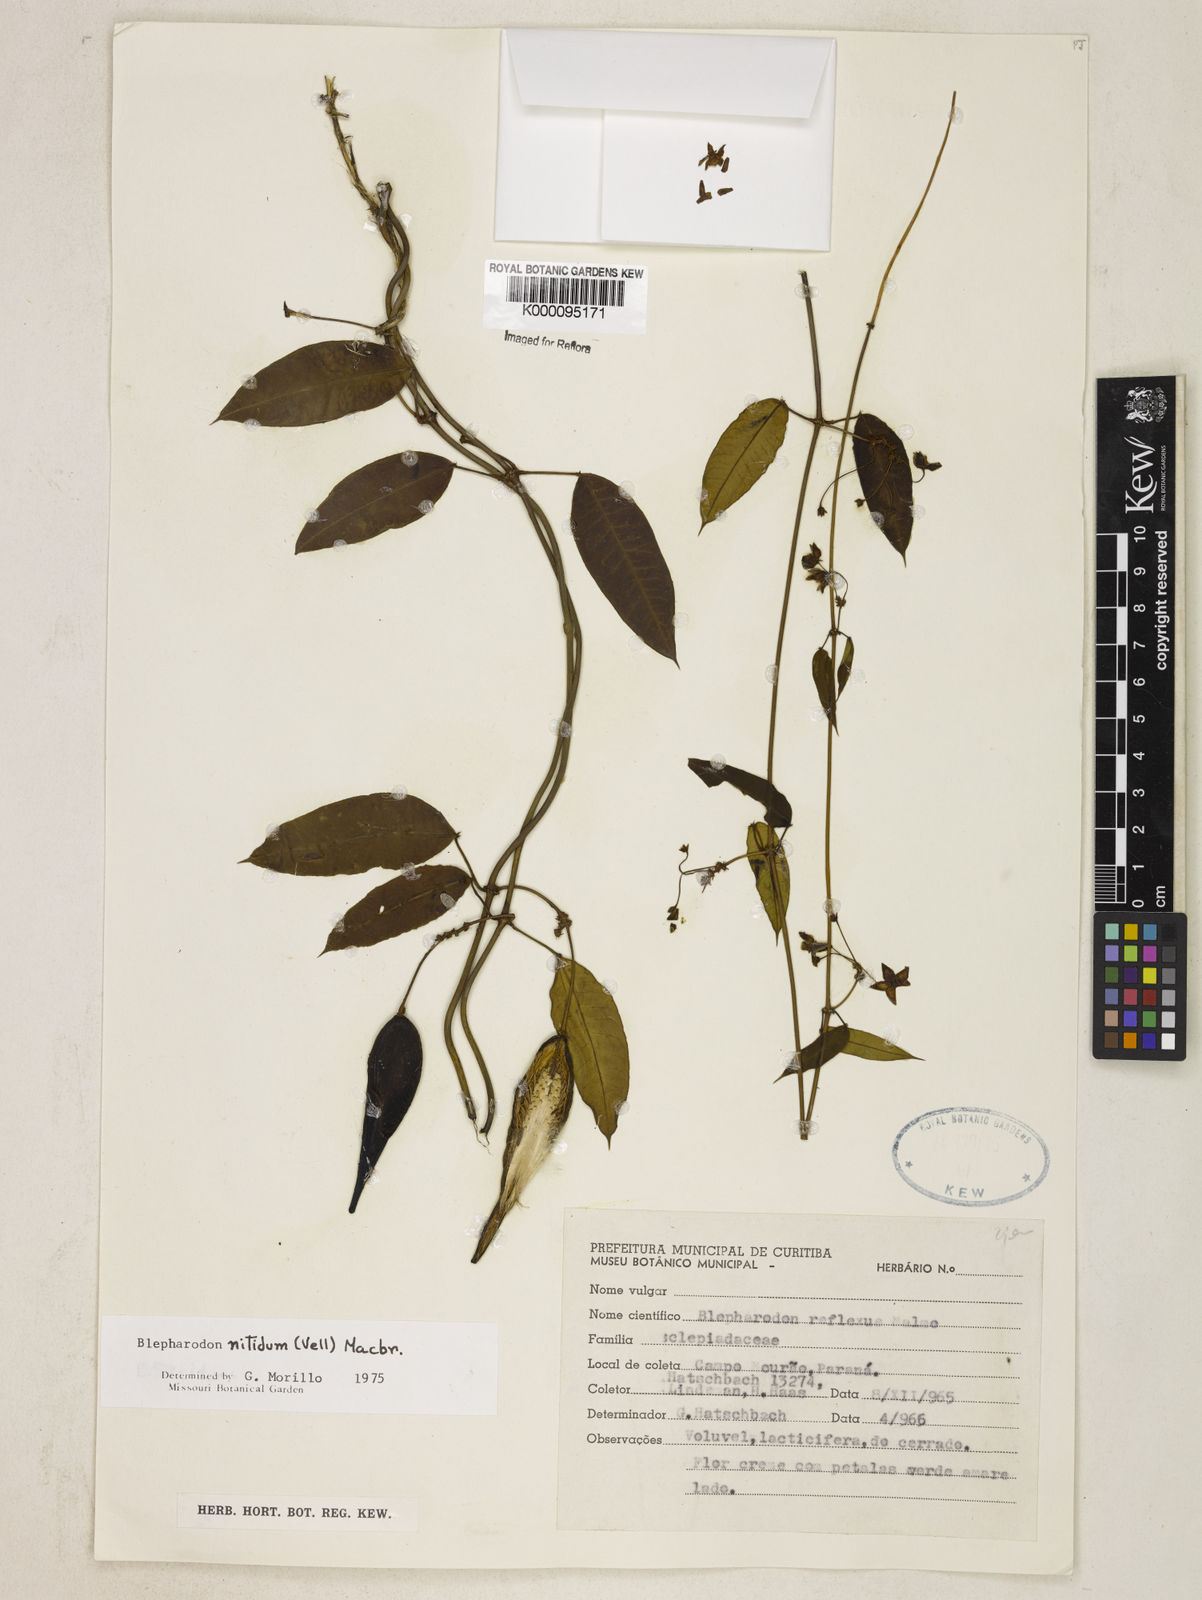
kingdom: Plantae
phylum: Tracheophyta
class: Magnoliopsida
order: Gentianales
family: Apocynaceae
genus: Blepharodon
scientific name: Blepharodon pictum
